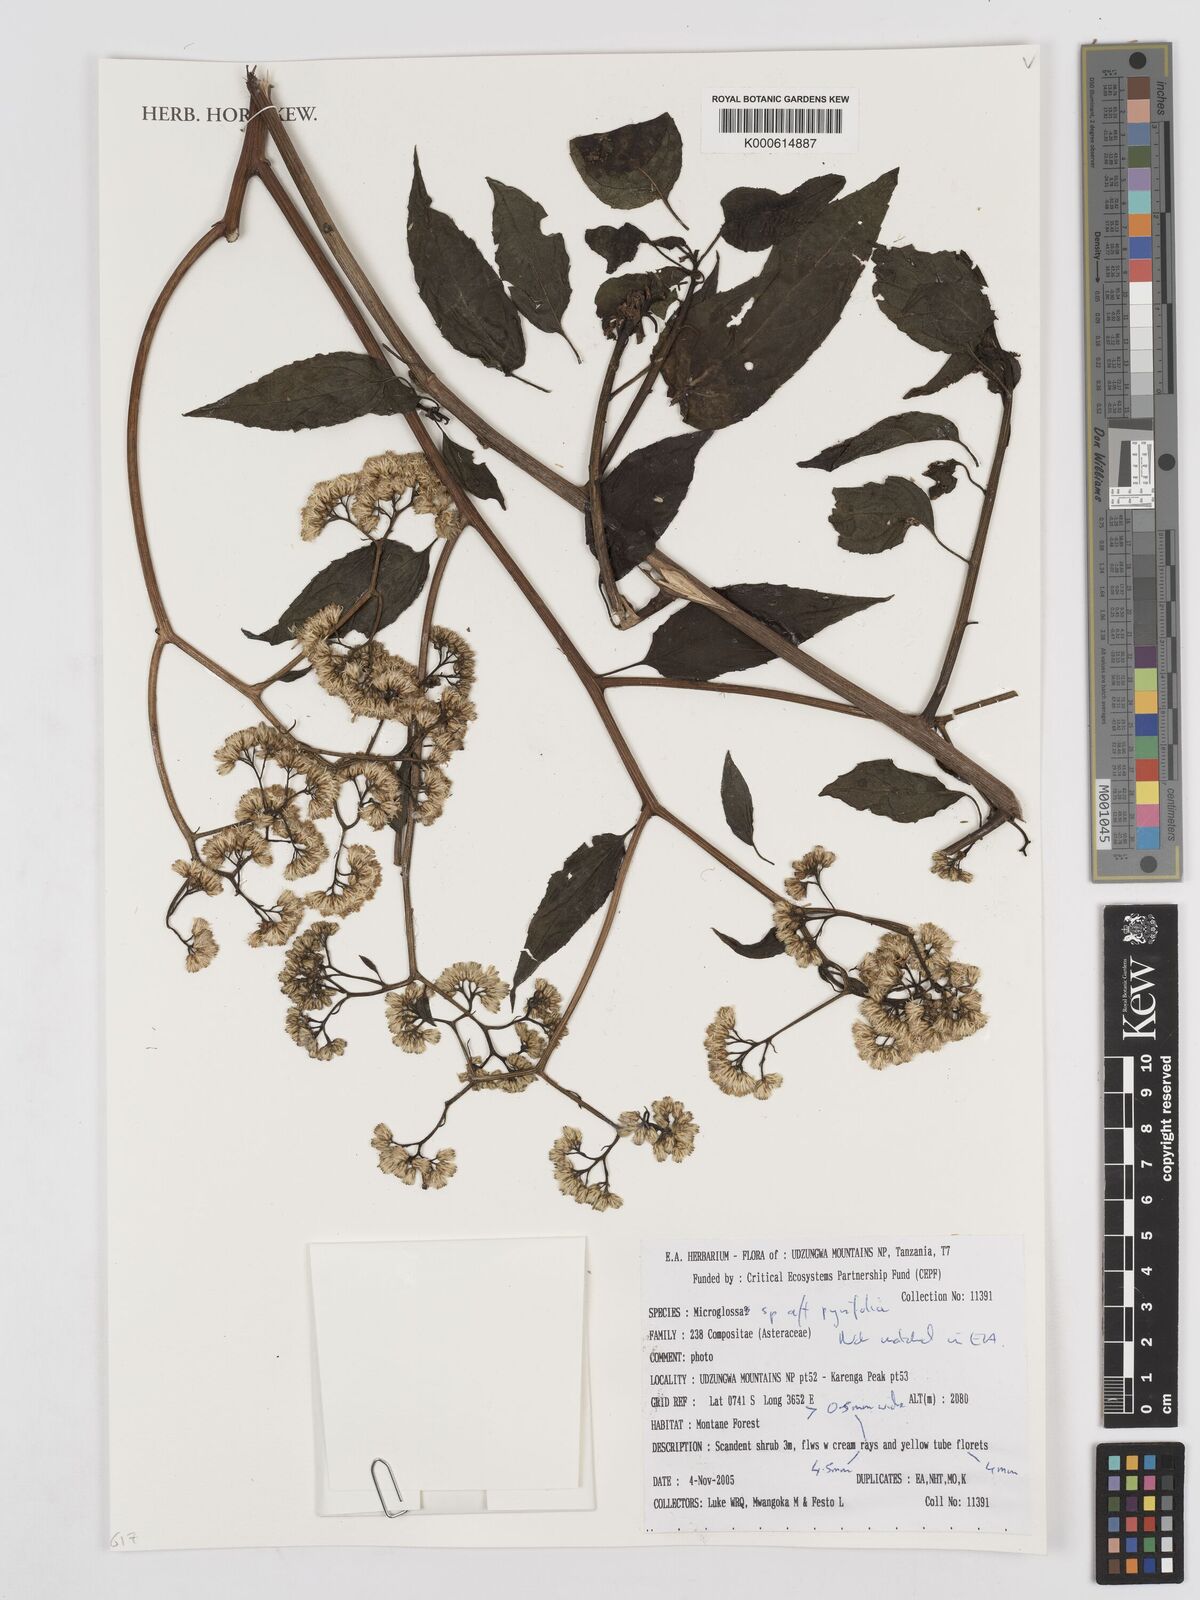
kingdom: Plantae
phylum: Tracheophyta
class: Magnoliopsida
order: Asterales
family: Asteraceae
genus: Microglossa
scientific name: Microglossa densiflora
